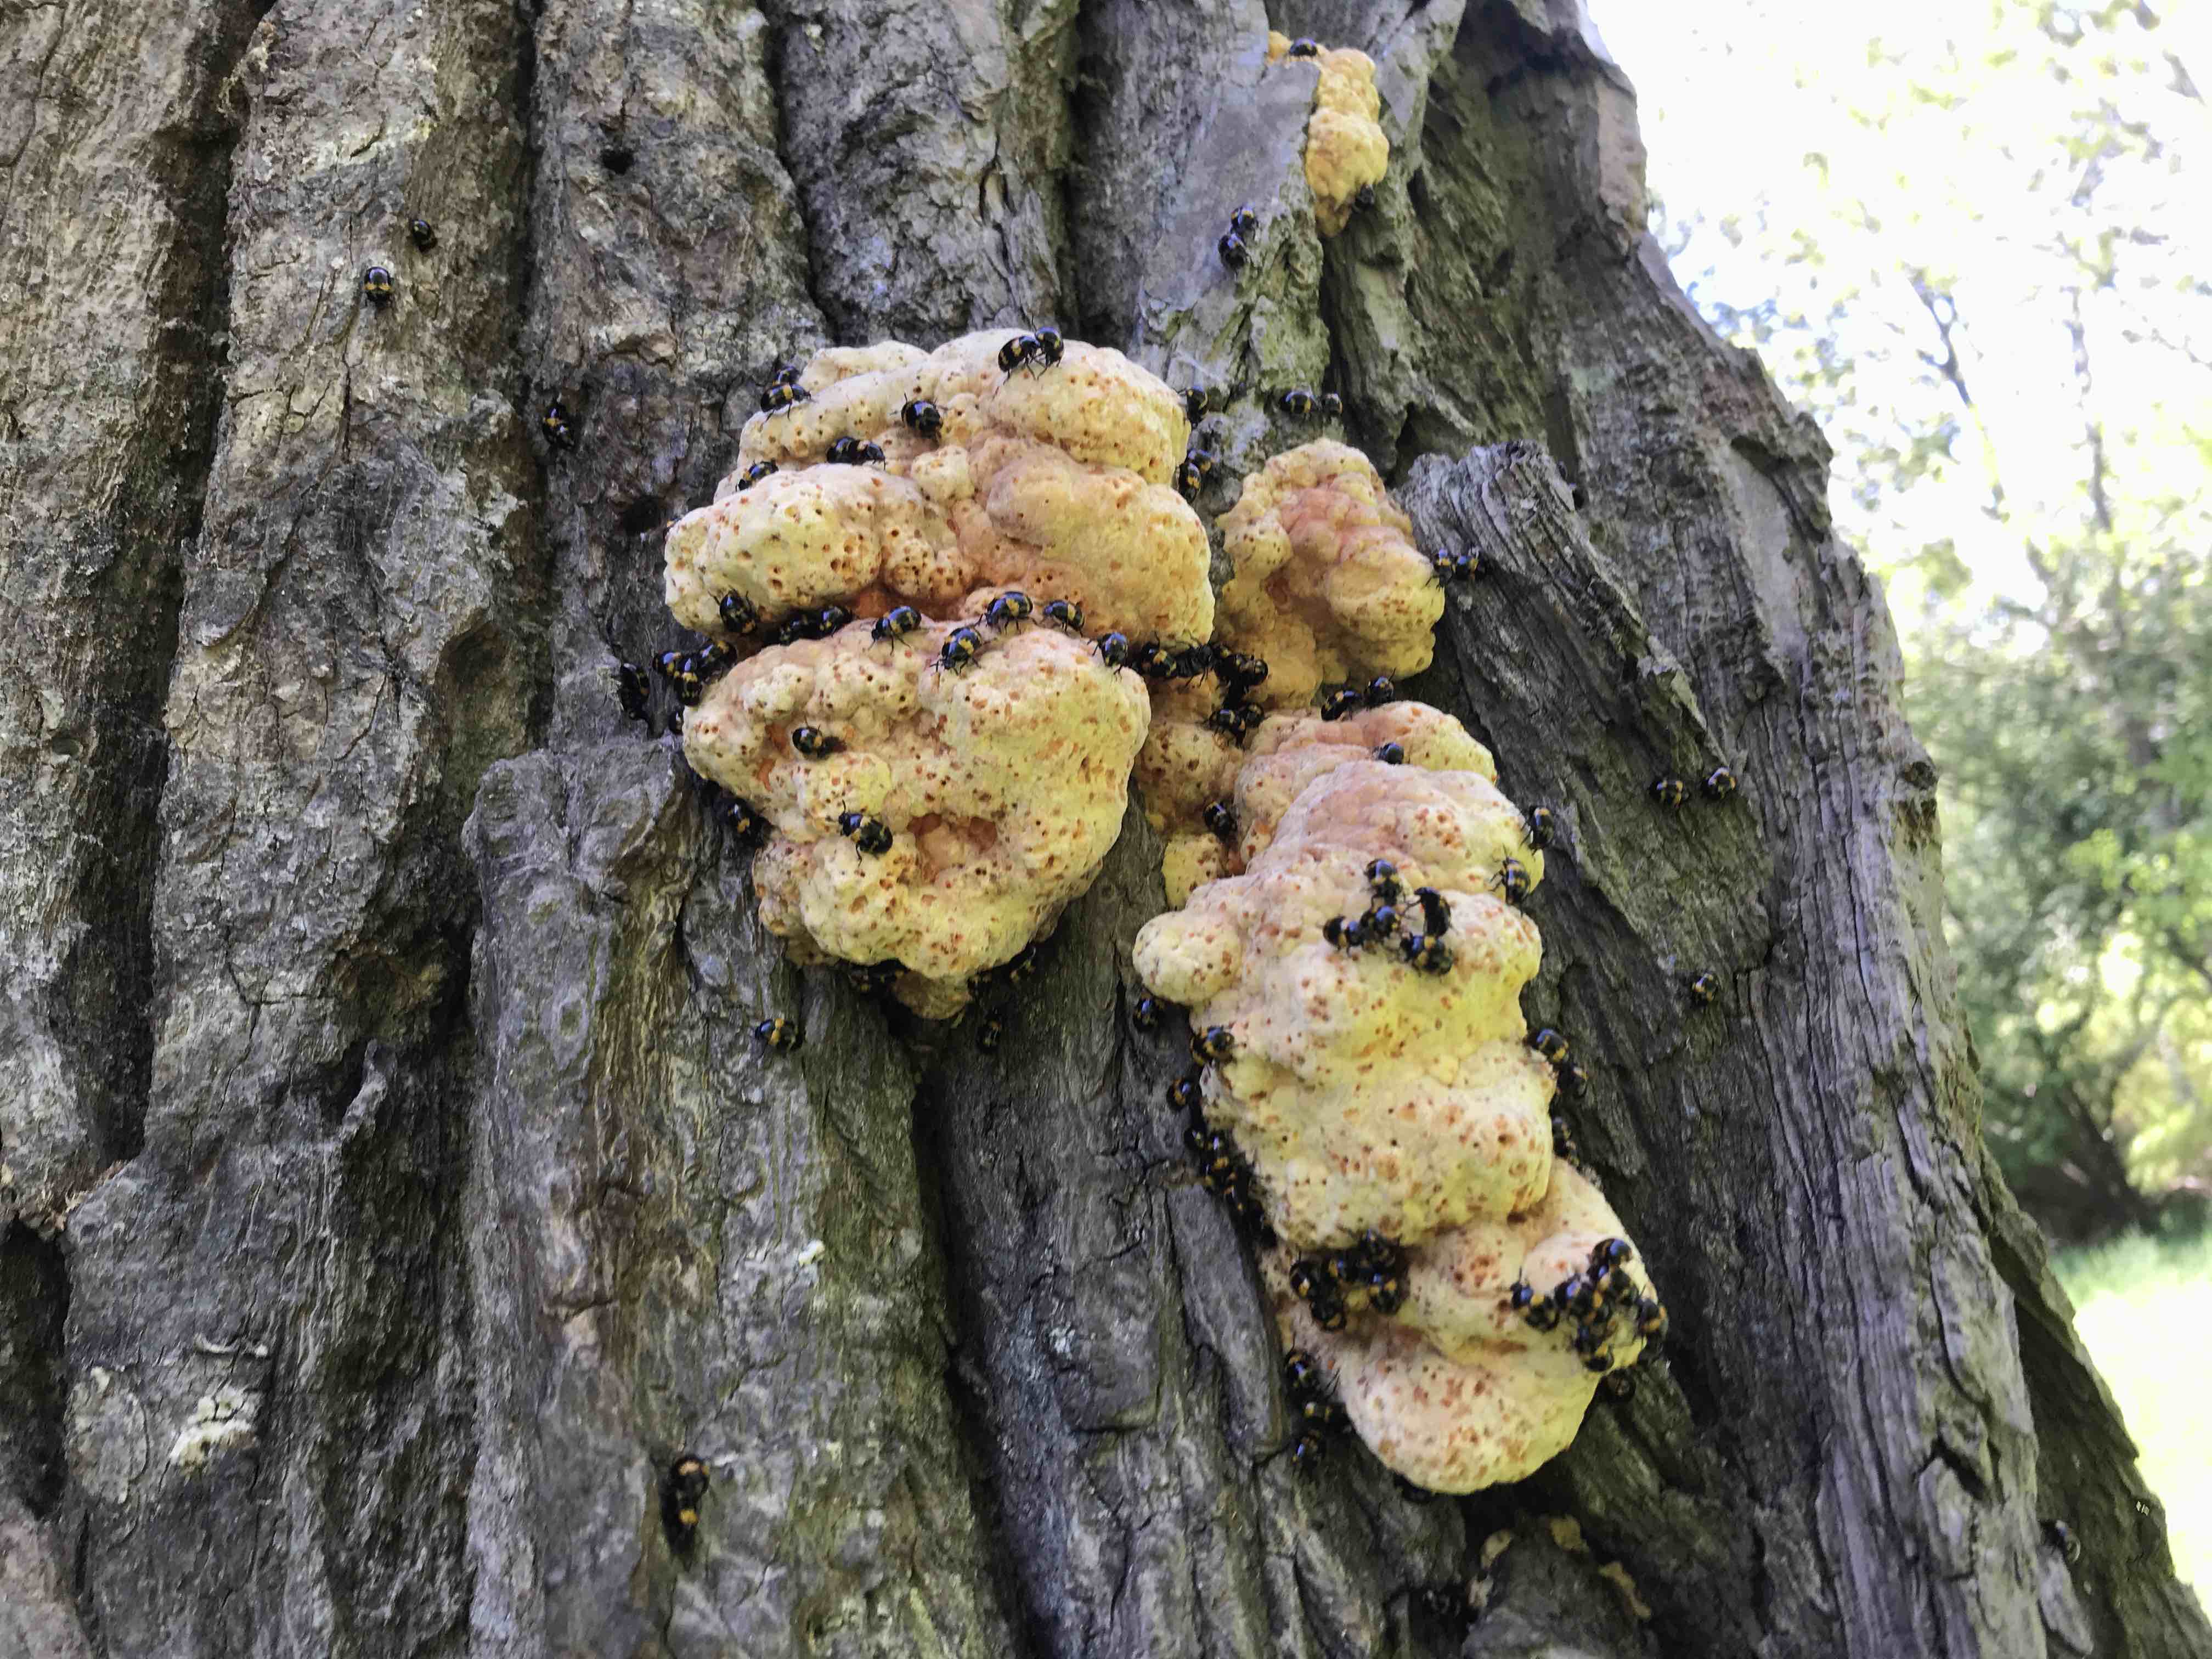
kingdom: Fungi
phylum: Basidiomycota
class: Agaricomycetes
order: Polyporales
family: Laetiporaceae
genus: Laetiporus
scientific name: Laetiporus sulphureus
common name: svovlporesvamp
